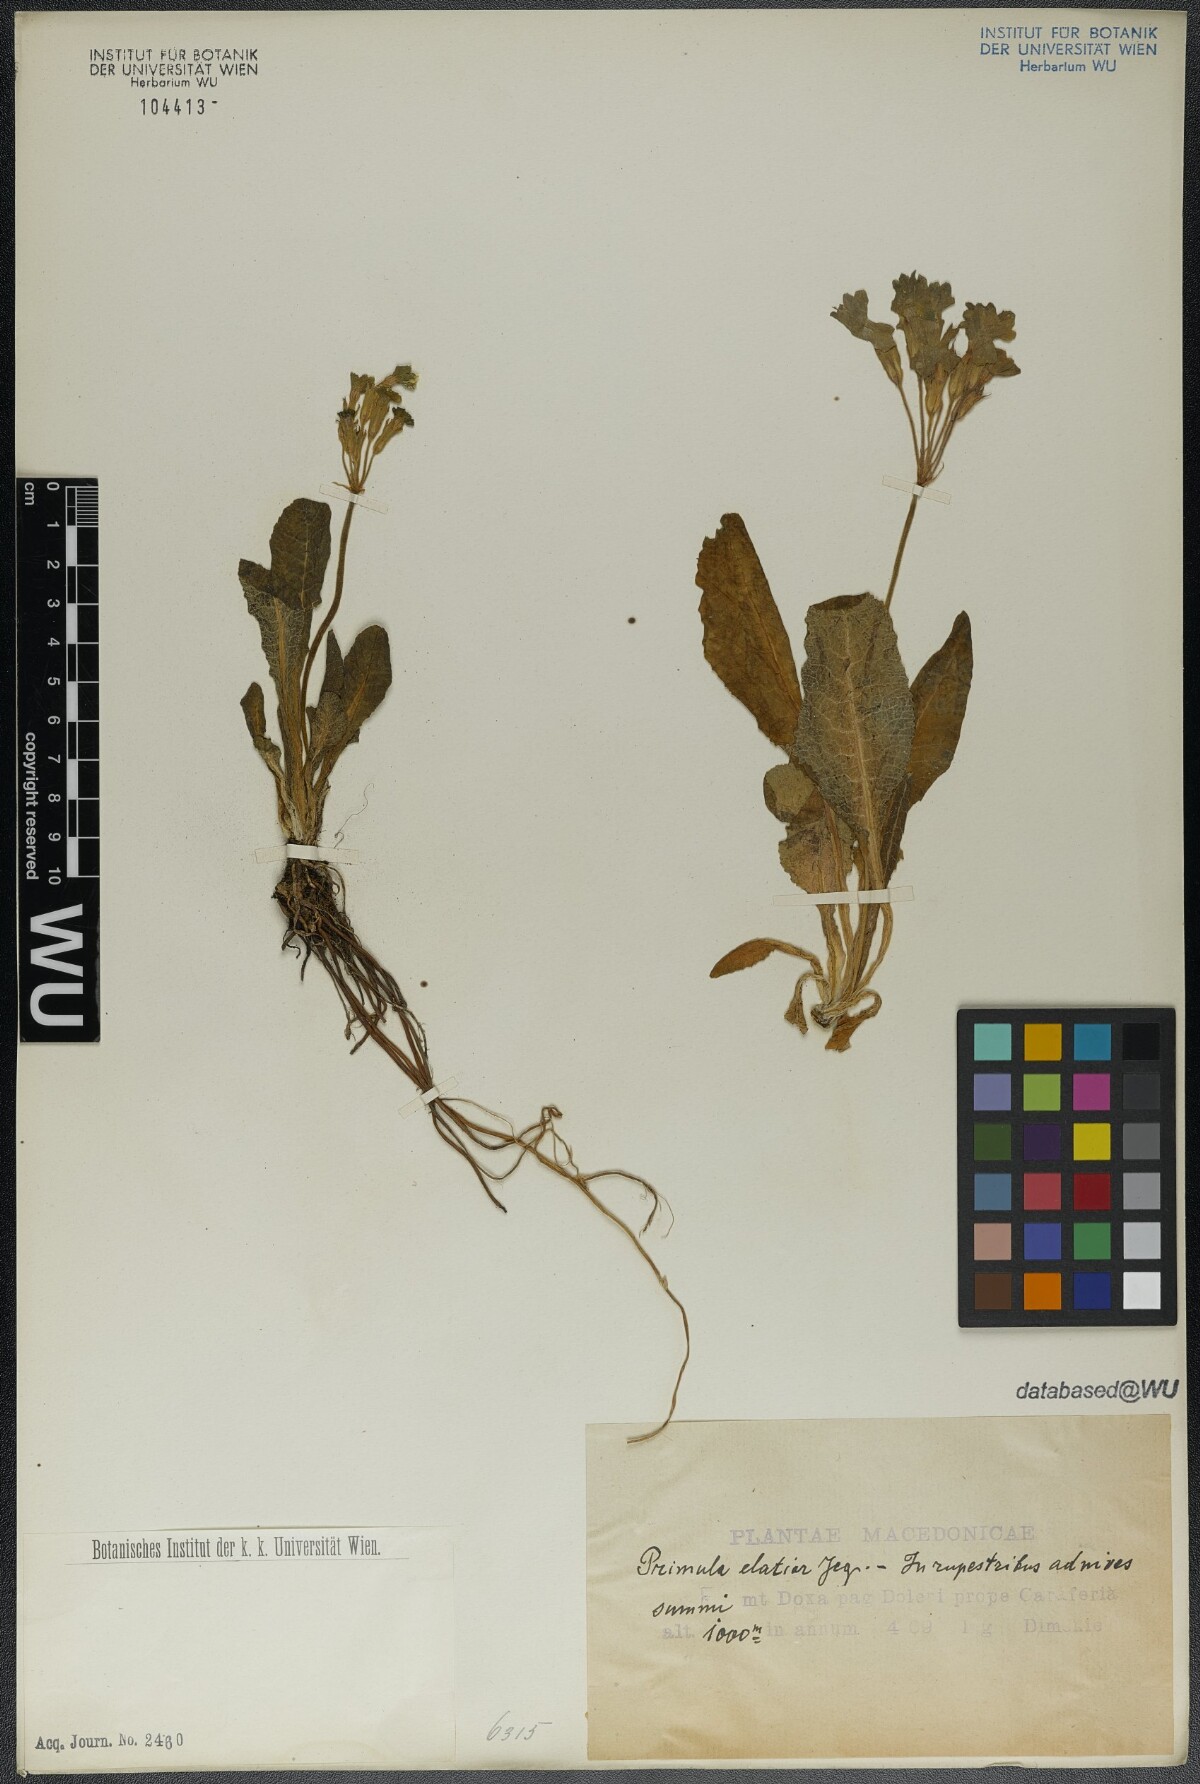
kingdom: Plantae
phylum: Tracheophyta
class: Magnoliopsida
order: Ericales
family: Primulaceae
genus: Primula
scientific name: Primula elatior
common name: Oxlip
